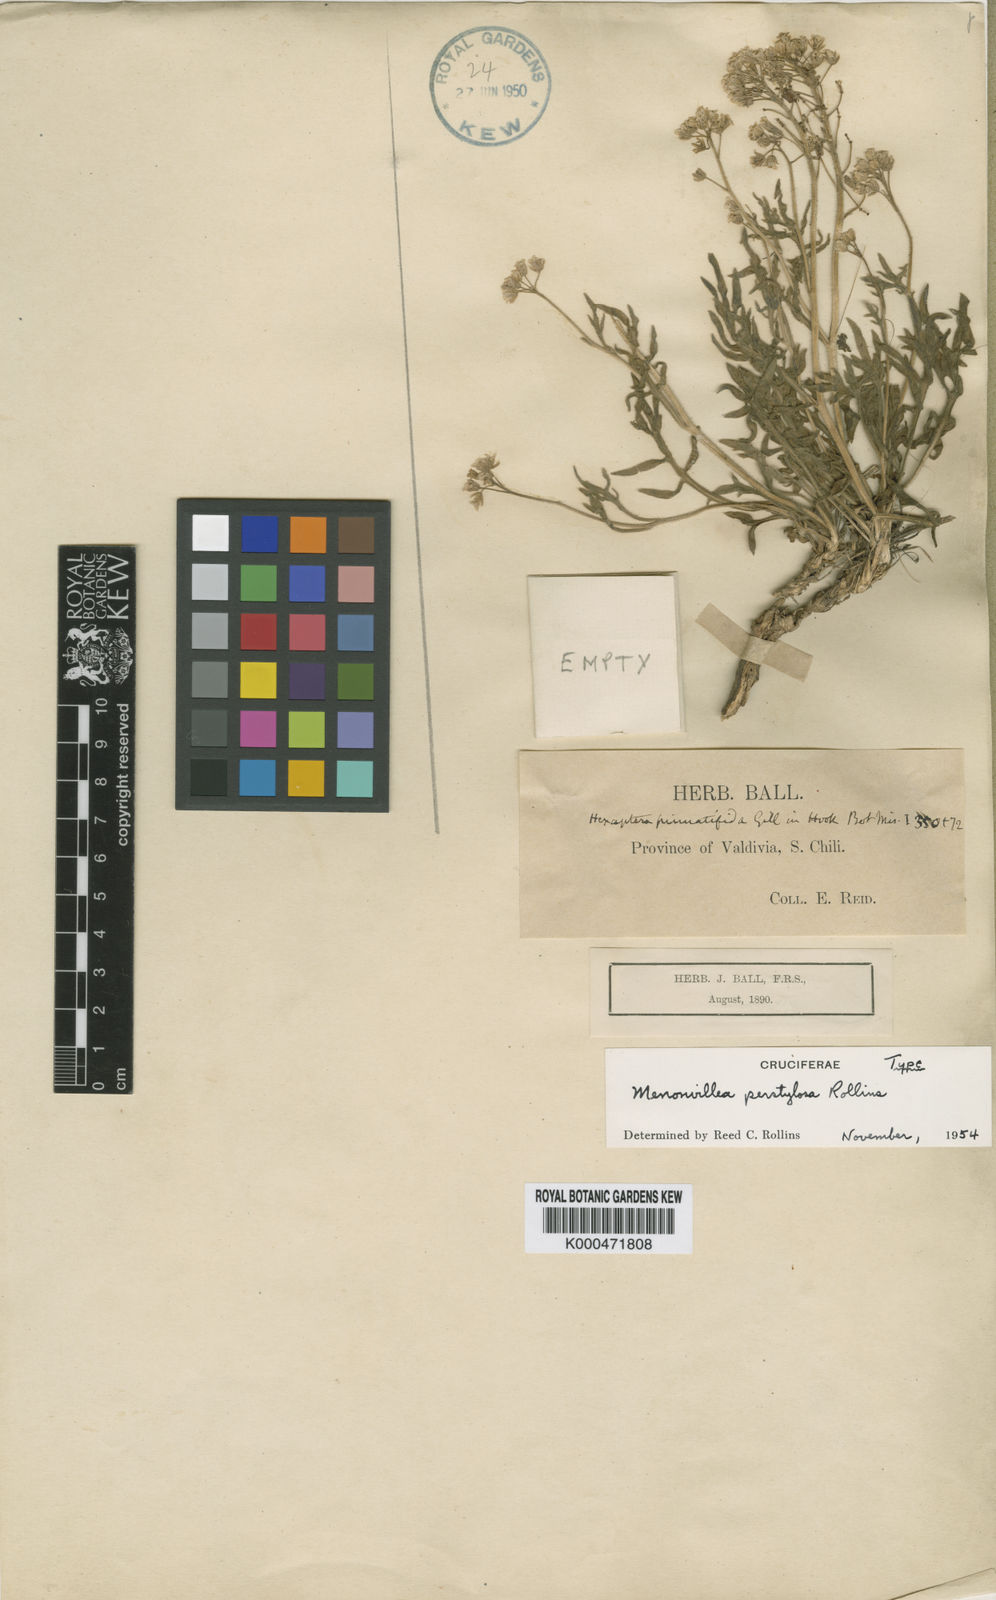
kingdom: Plantae
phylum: Tracheophyta
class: Magnoliopsida
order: Brassicales
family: Brassicaceae
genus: Menonvillea
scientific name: Menonvillea scapigera
